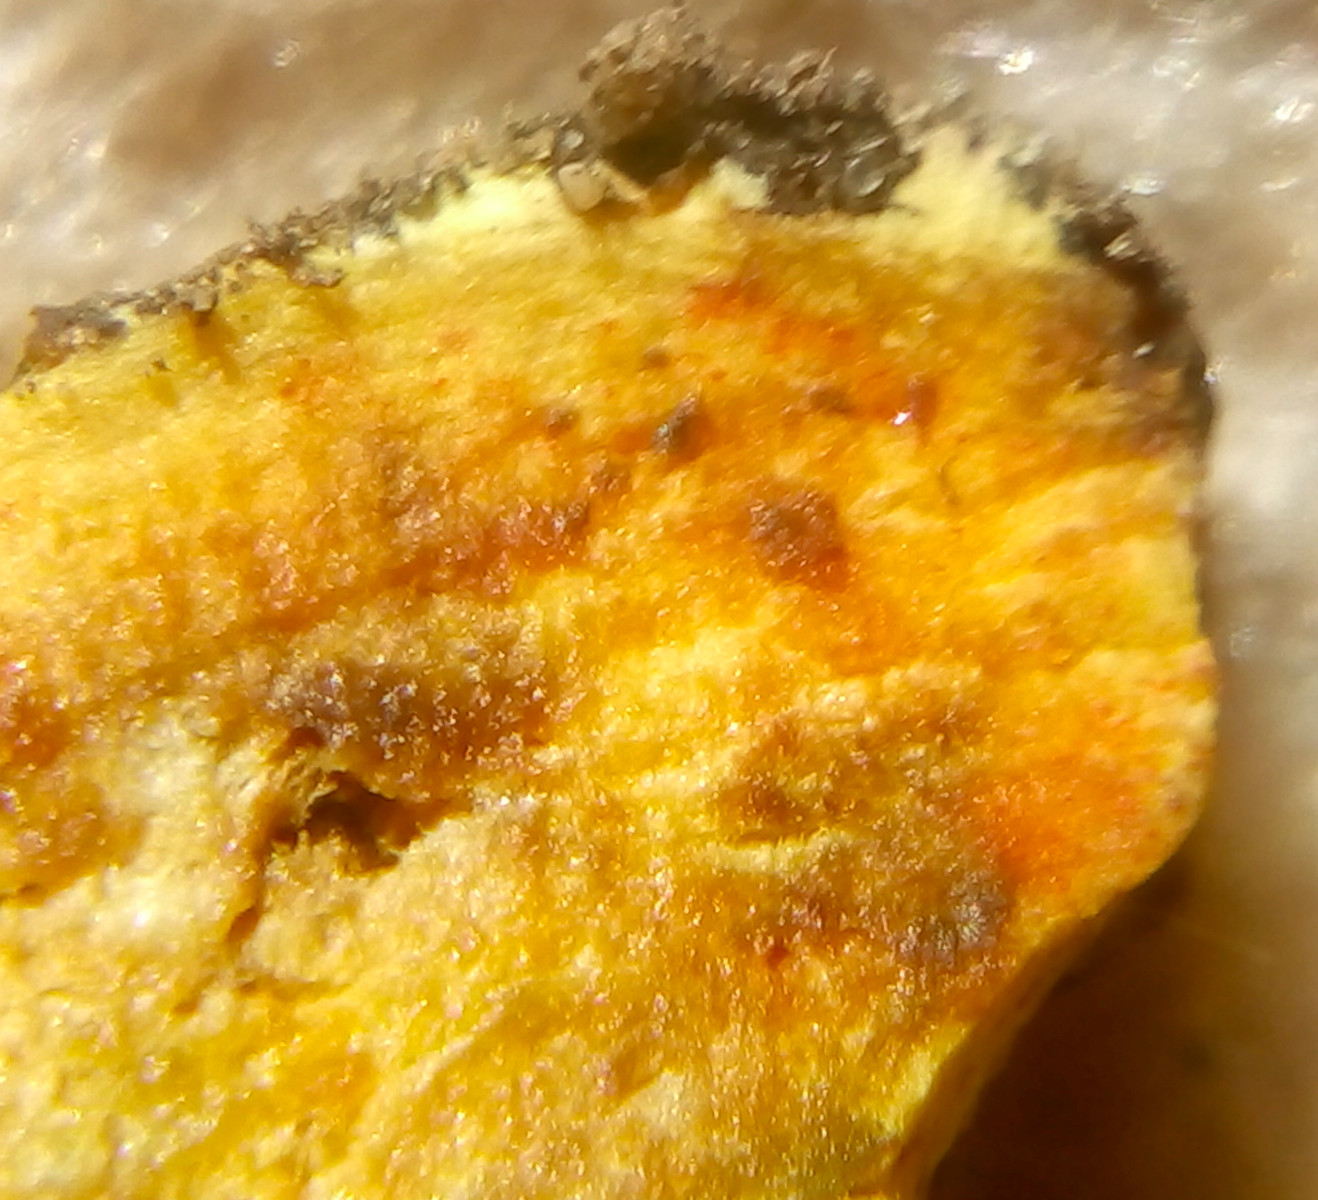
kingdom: Fungi
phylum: Basidiomycota
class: Agaricomycetes
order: Boletales
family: Boletaceae
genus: Hortiboletus
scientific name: Hortiboletus bubalinus
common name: aurora-rørhat
